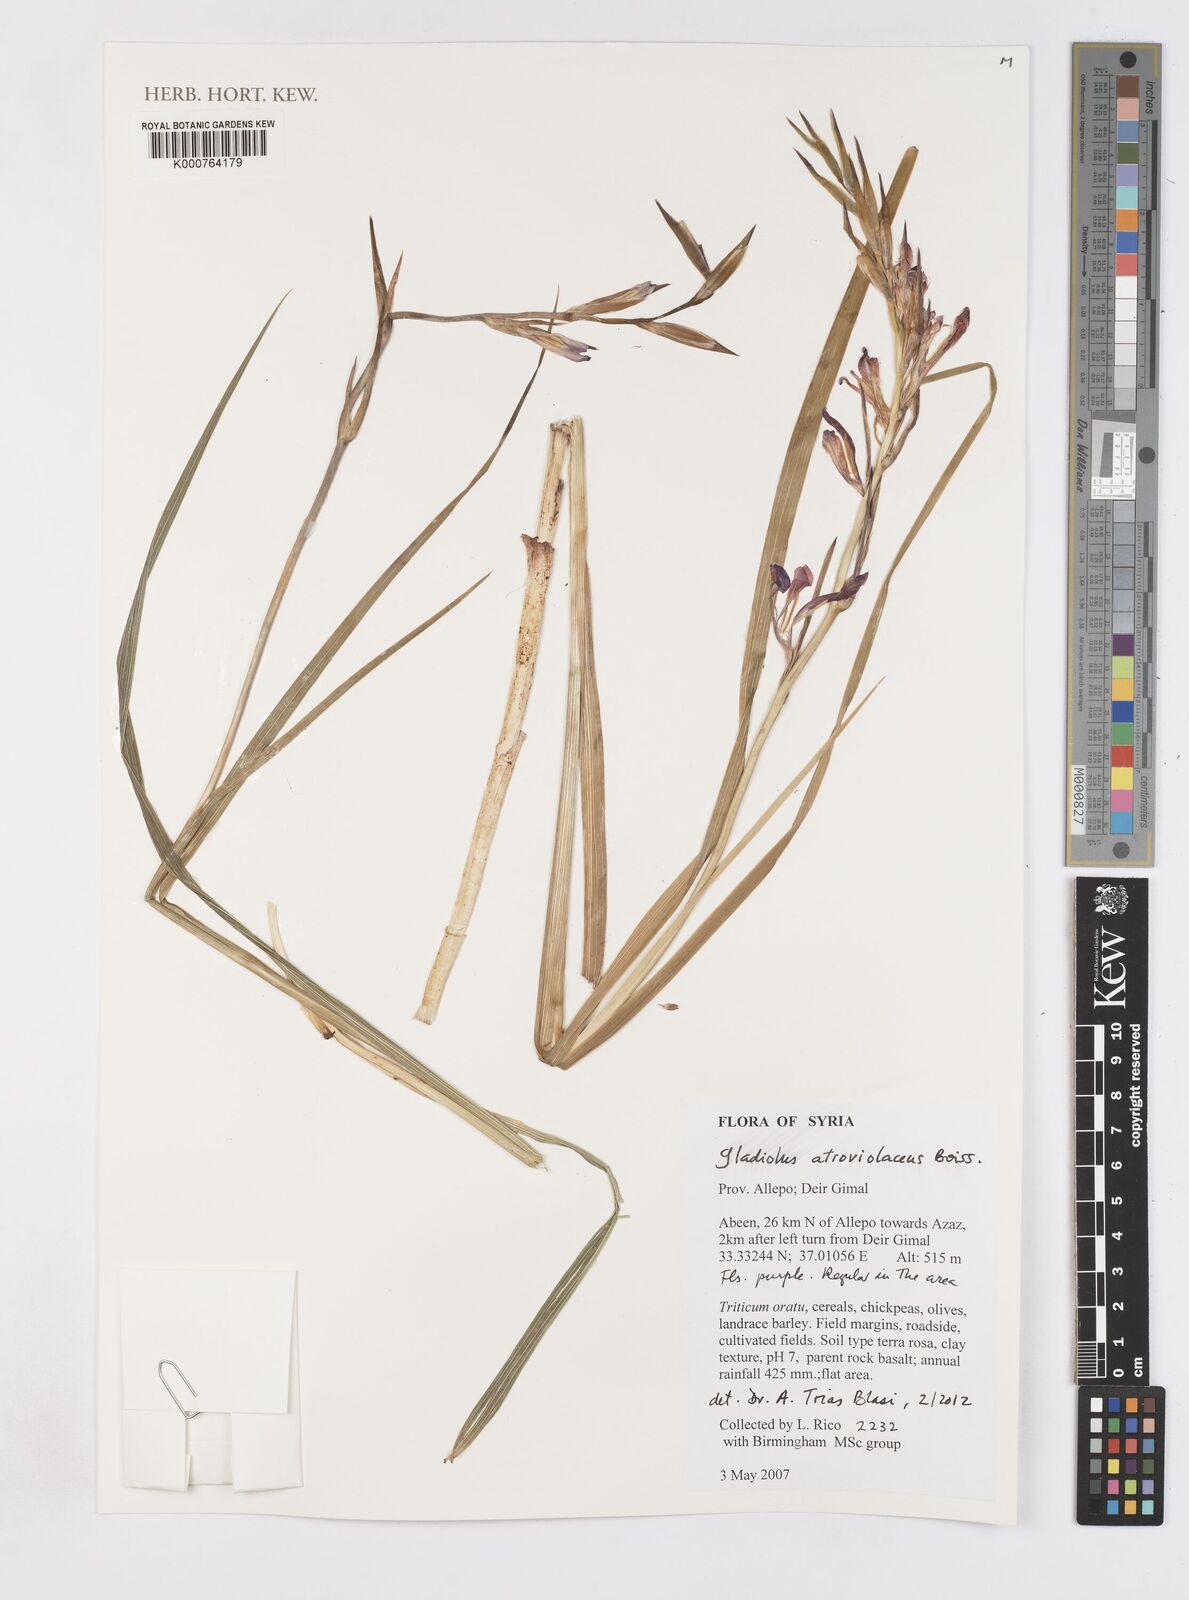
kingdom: Plantae
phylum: Tracheophyta
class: Liliopsida
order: Asparagales
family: Iridaceae
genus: Gladiolus
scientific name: Gladiolus atroviolaceus
